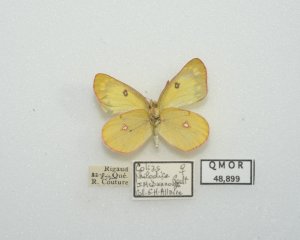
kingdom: Animalia
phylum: Arthropoda
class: Insecta
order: Lepidoptera
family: Pieridae
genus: Colias
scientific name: Colias philodice
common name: Clouded Sulphur
